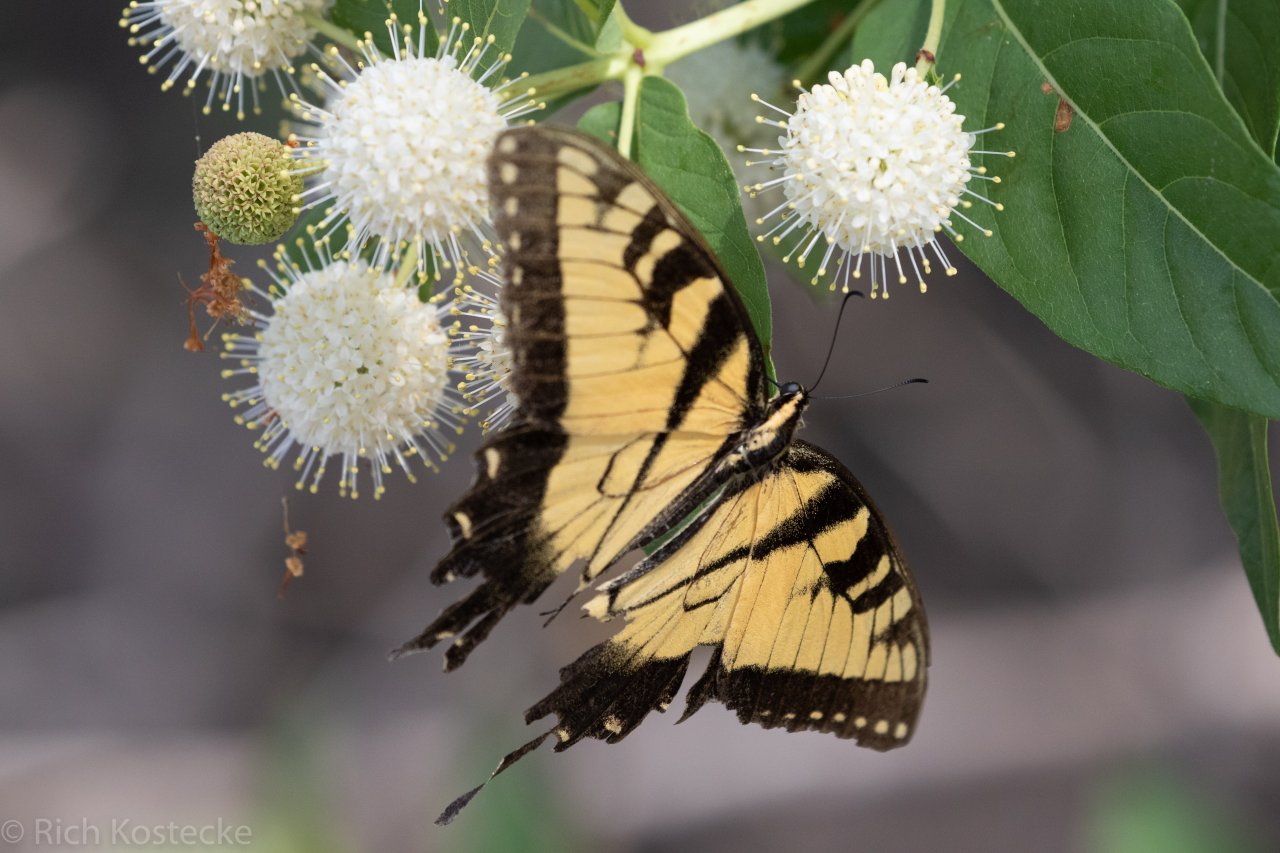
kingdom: Animalia
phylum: Arthropoda
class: Insecta
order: Lepidoptera
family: Papilionidae
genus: Pterourus
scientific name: Pterourus glaucus
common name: Eastern Tiger Swallowtail
